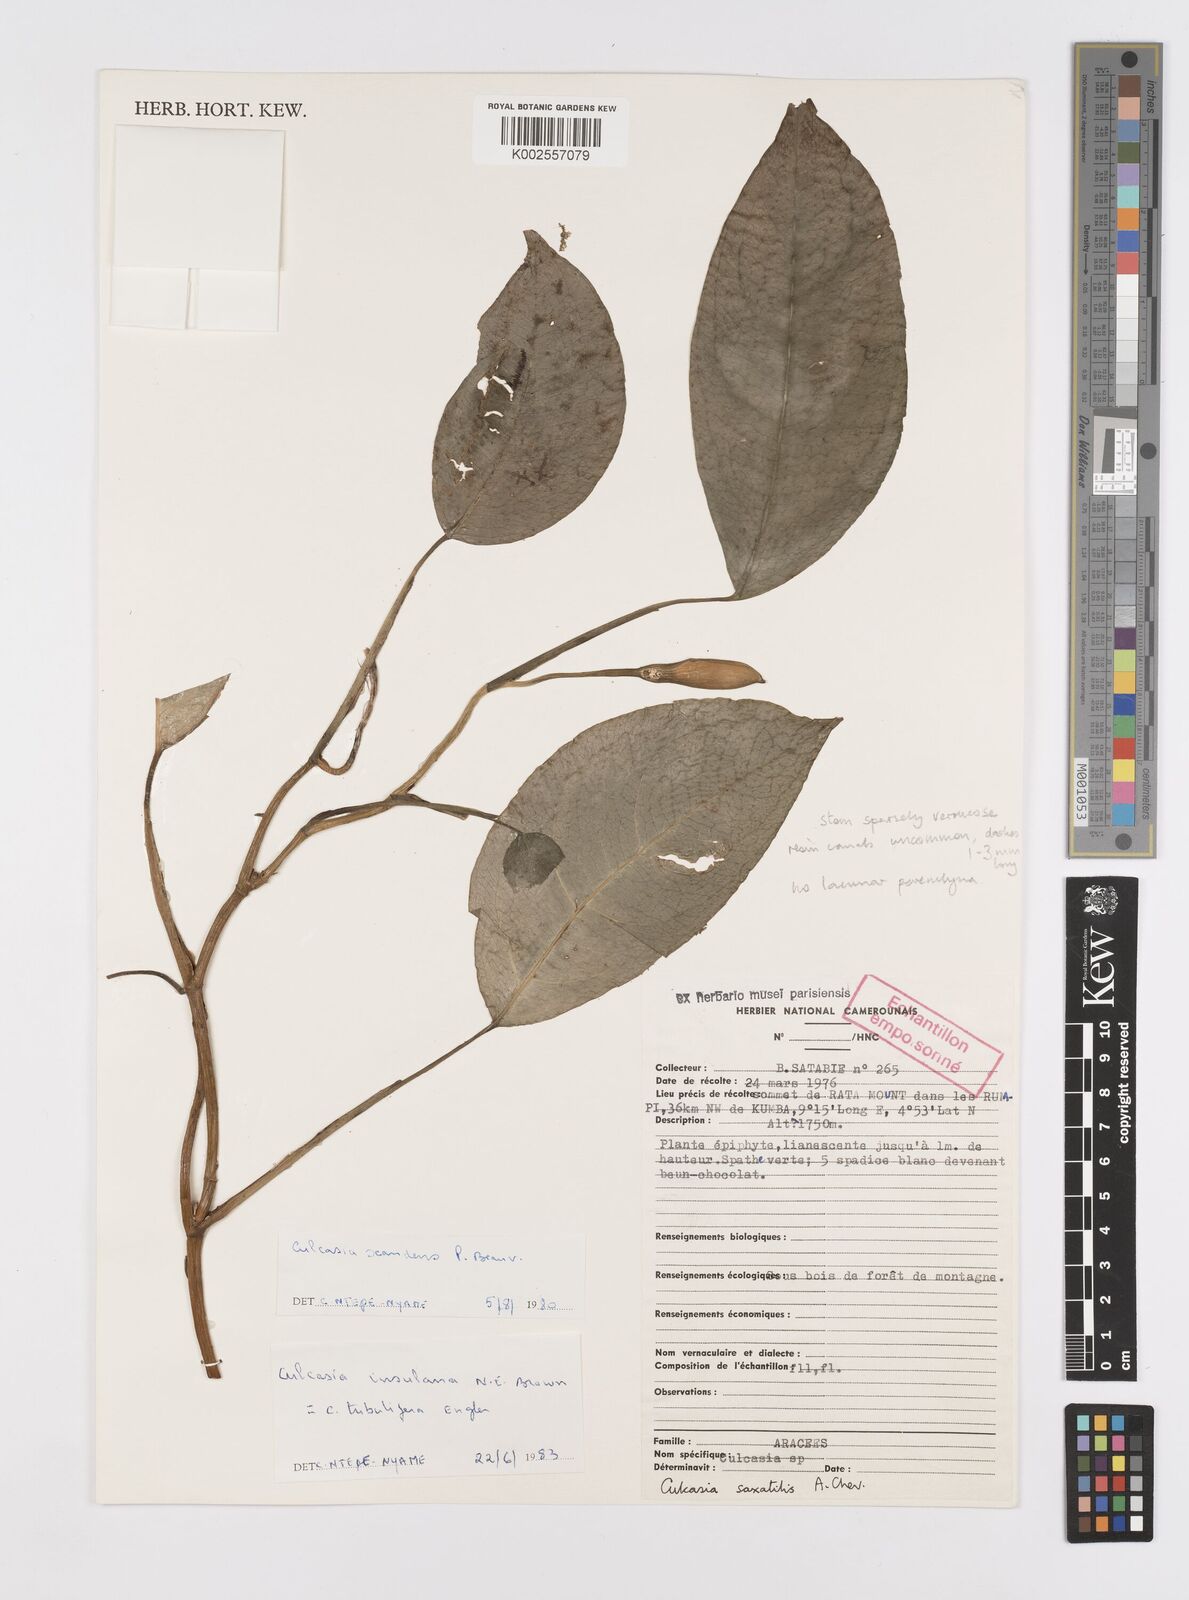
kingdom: Plantae
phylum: Tracheophyta
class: Liliopsida
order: Alismatales
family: Araceae
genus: Culcasia
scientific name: Culcasia insulana
